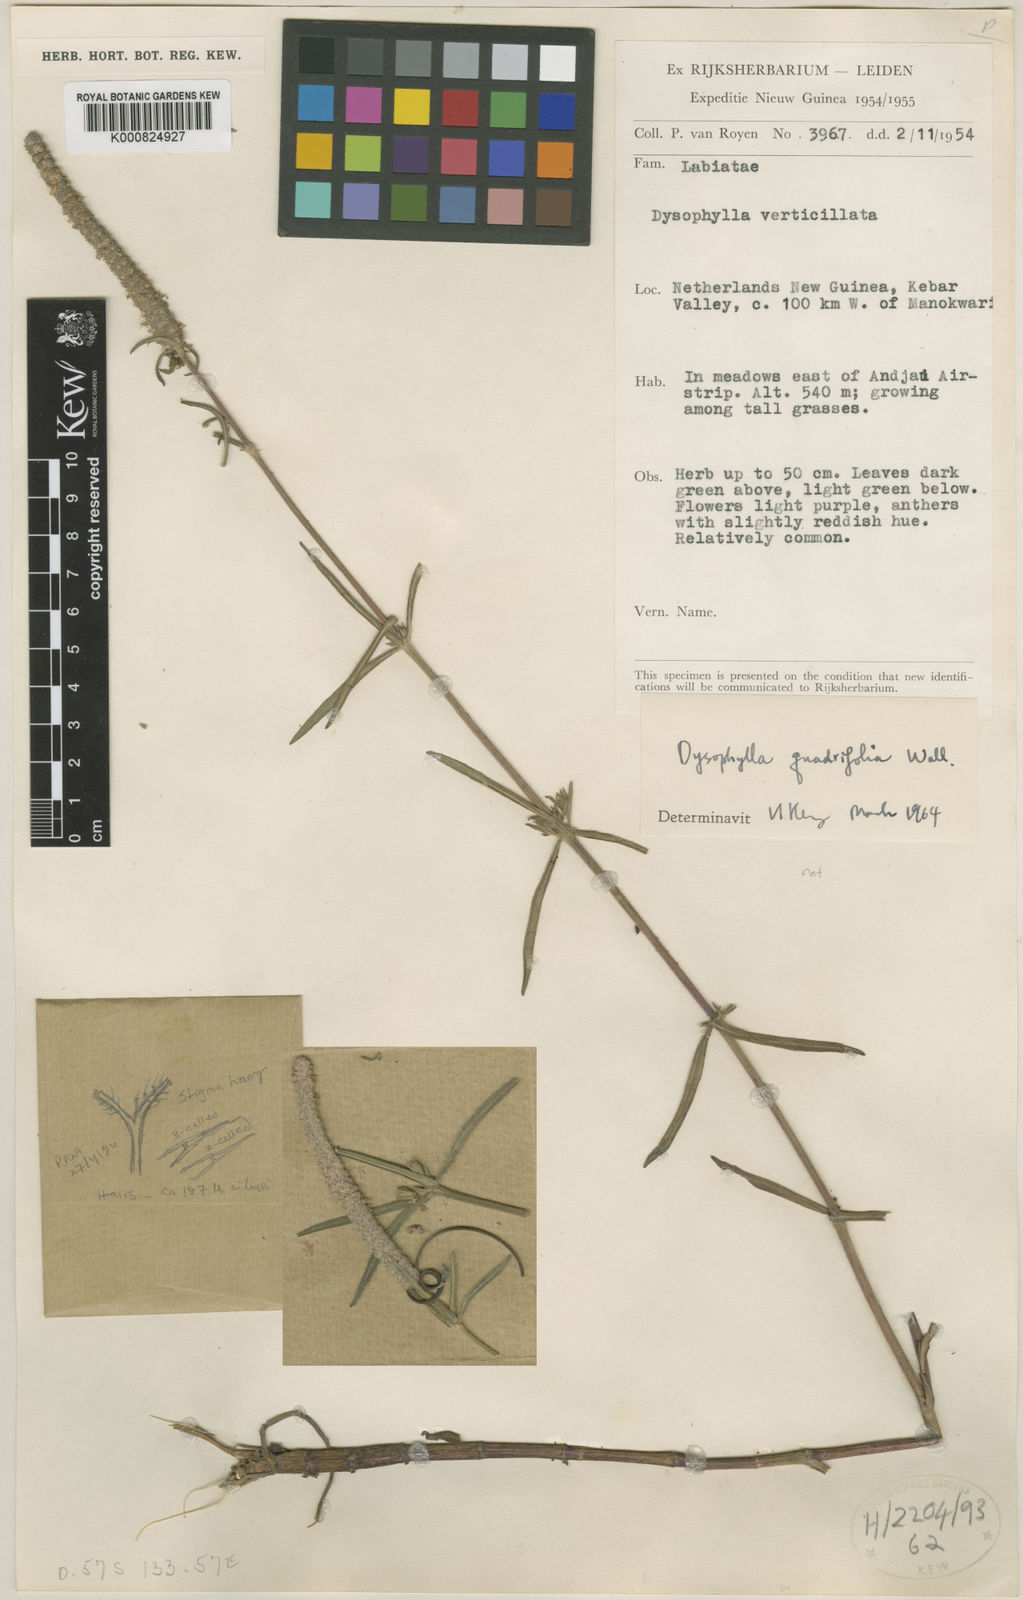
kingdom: Plantae
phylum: Tracheophyta
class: Magnoliopsida
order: Lamiales
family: Lamiaceae
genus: Pogostemon
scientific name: Pogostemon
